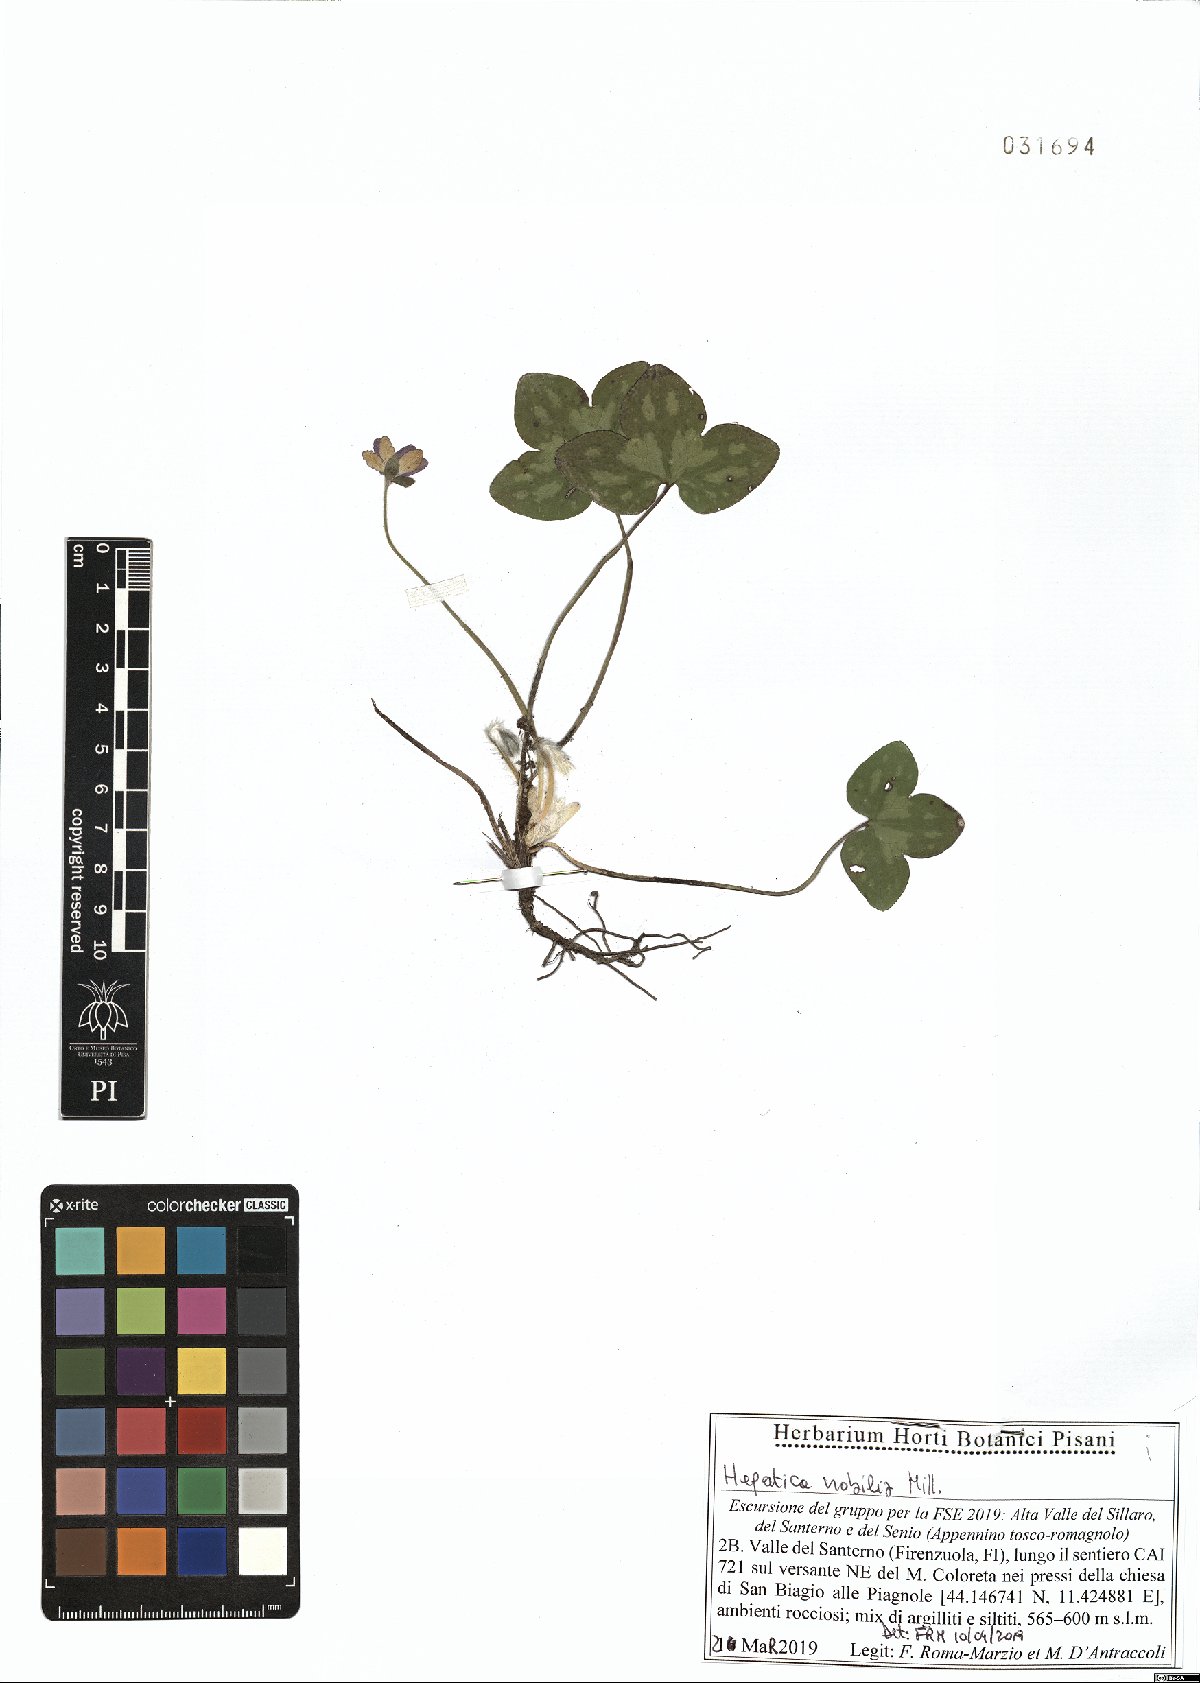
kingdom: Plantae
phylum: Tracheophyta
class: Magnoliopsida
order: Ranunculales
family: Ranunculaceae
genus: Hepatica
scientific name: Hepatica nobilis
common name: Liverleaf
